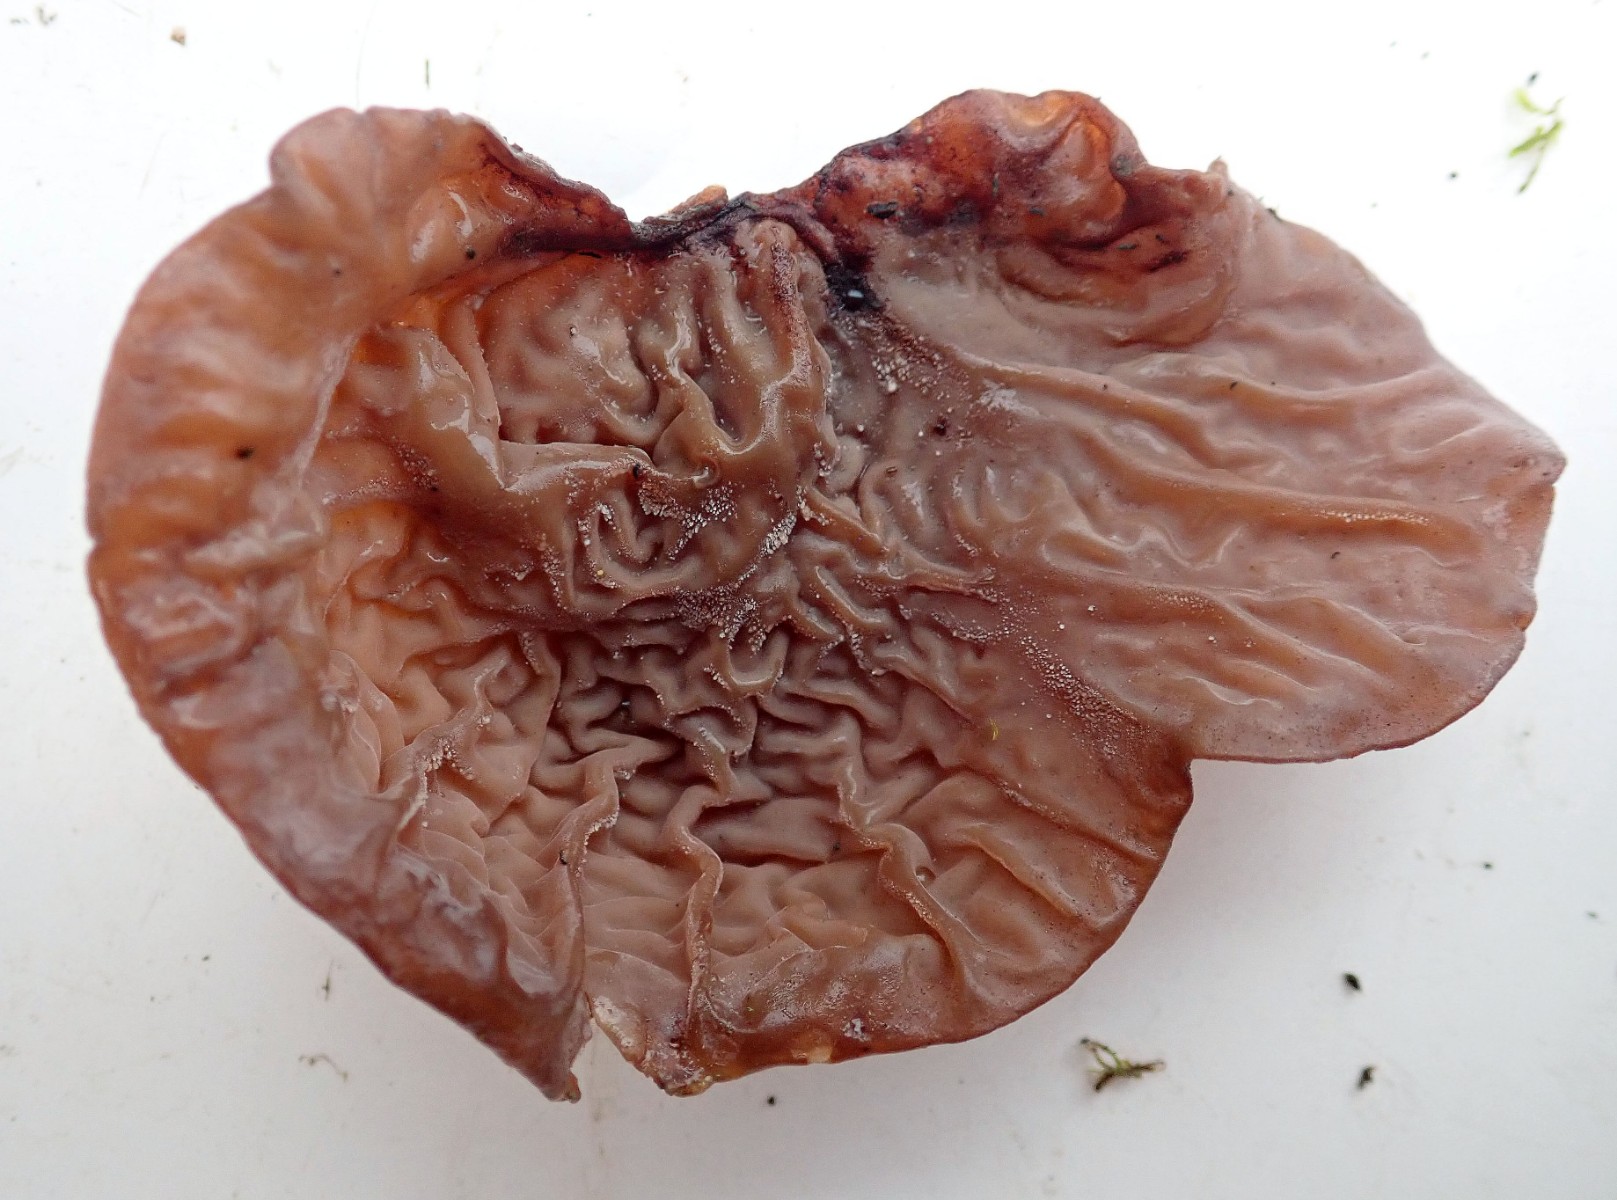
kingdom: Fungi
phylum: Basidiomycota
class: Agaricomycetes
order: Auriculariales
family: Auriculariaceae
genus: Auricularia
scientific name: Auricularia auricula-judae
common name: almindelig judasøre
